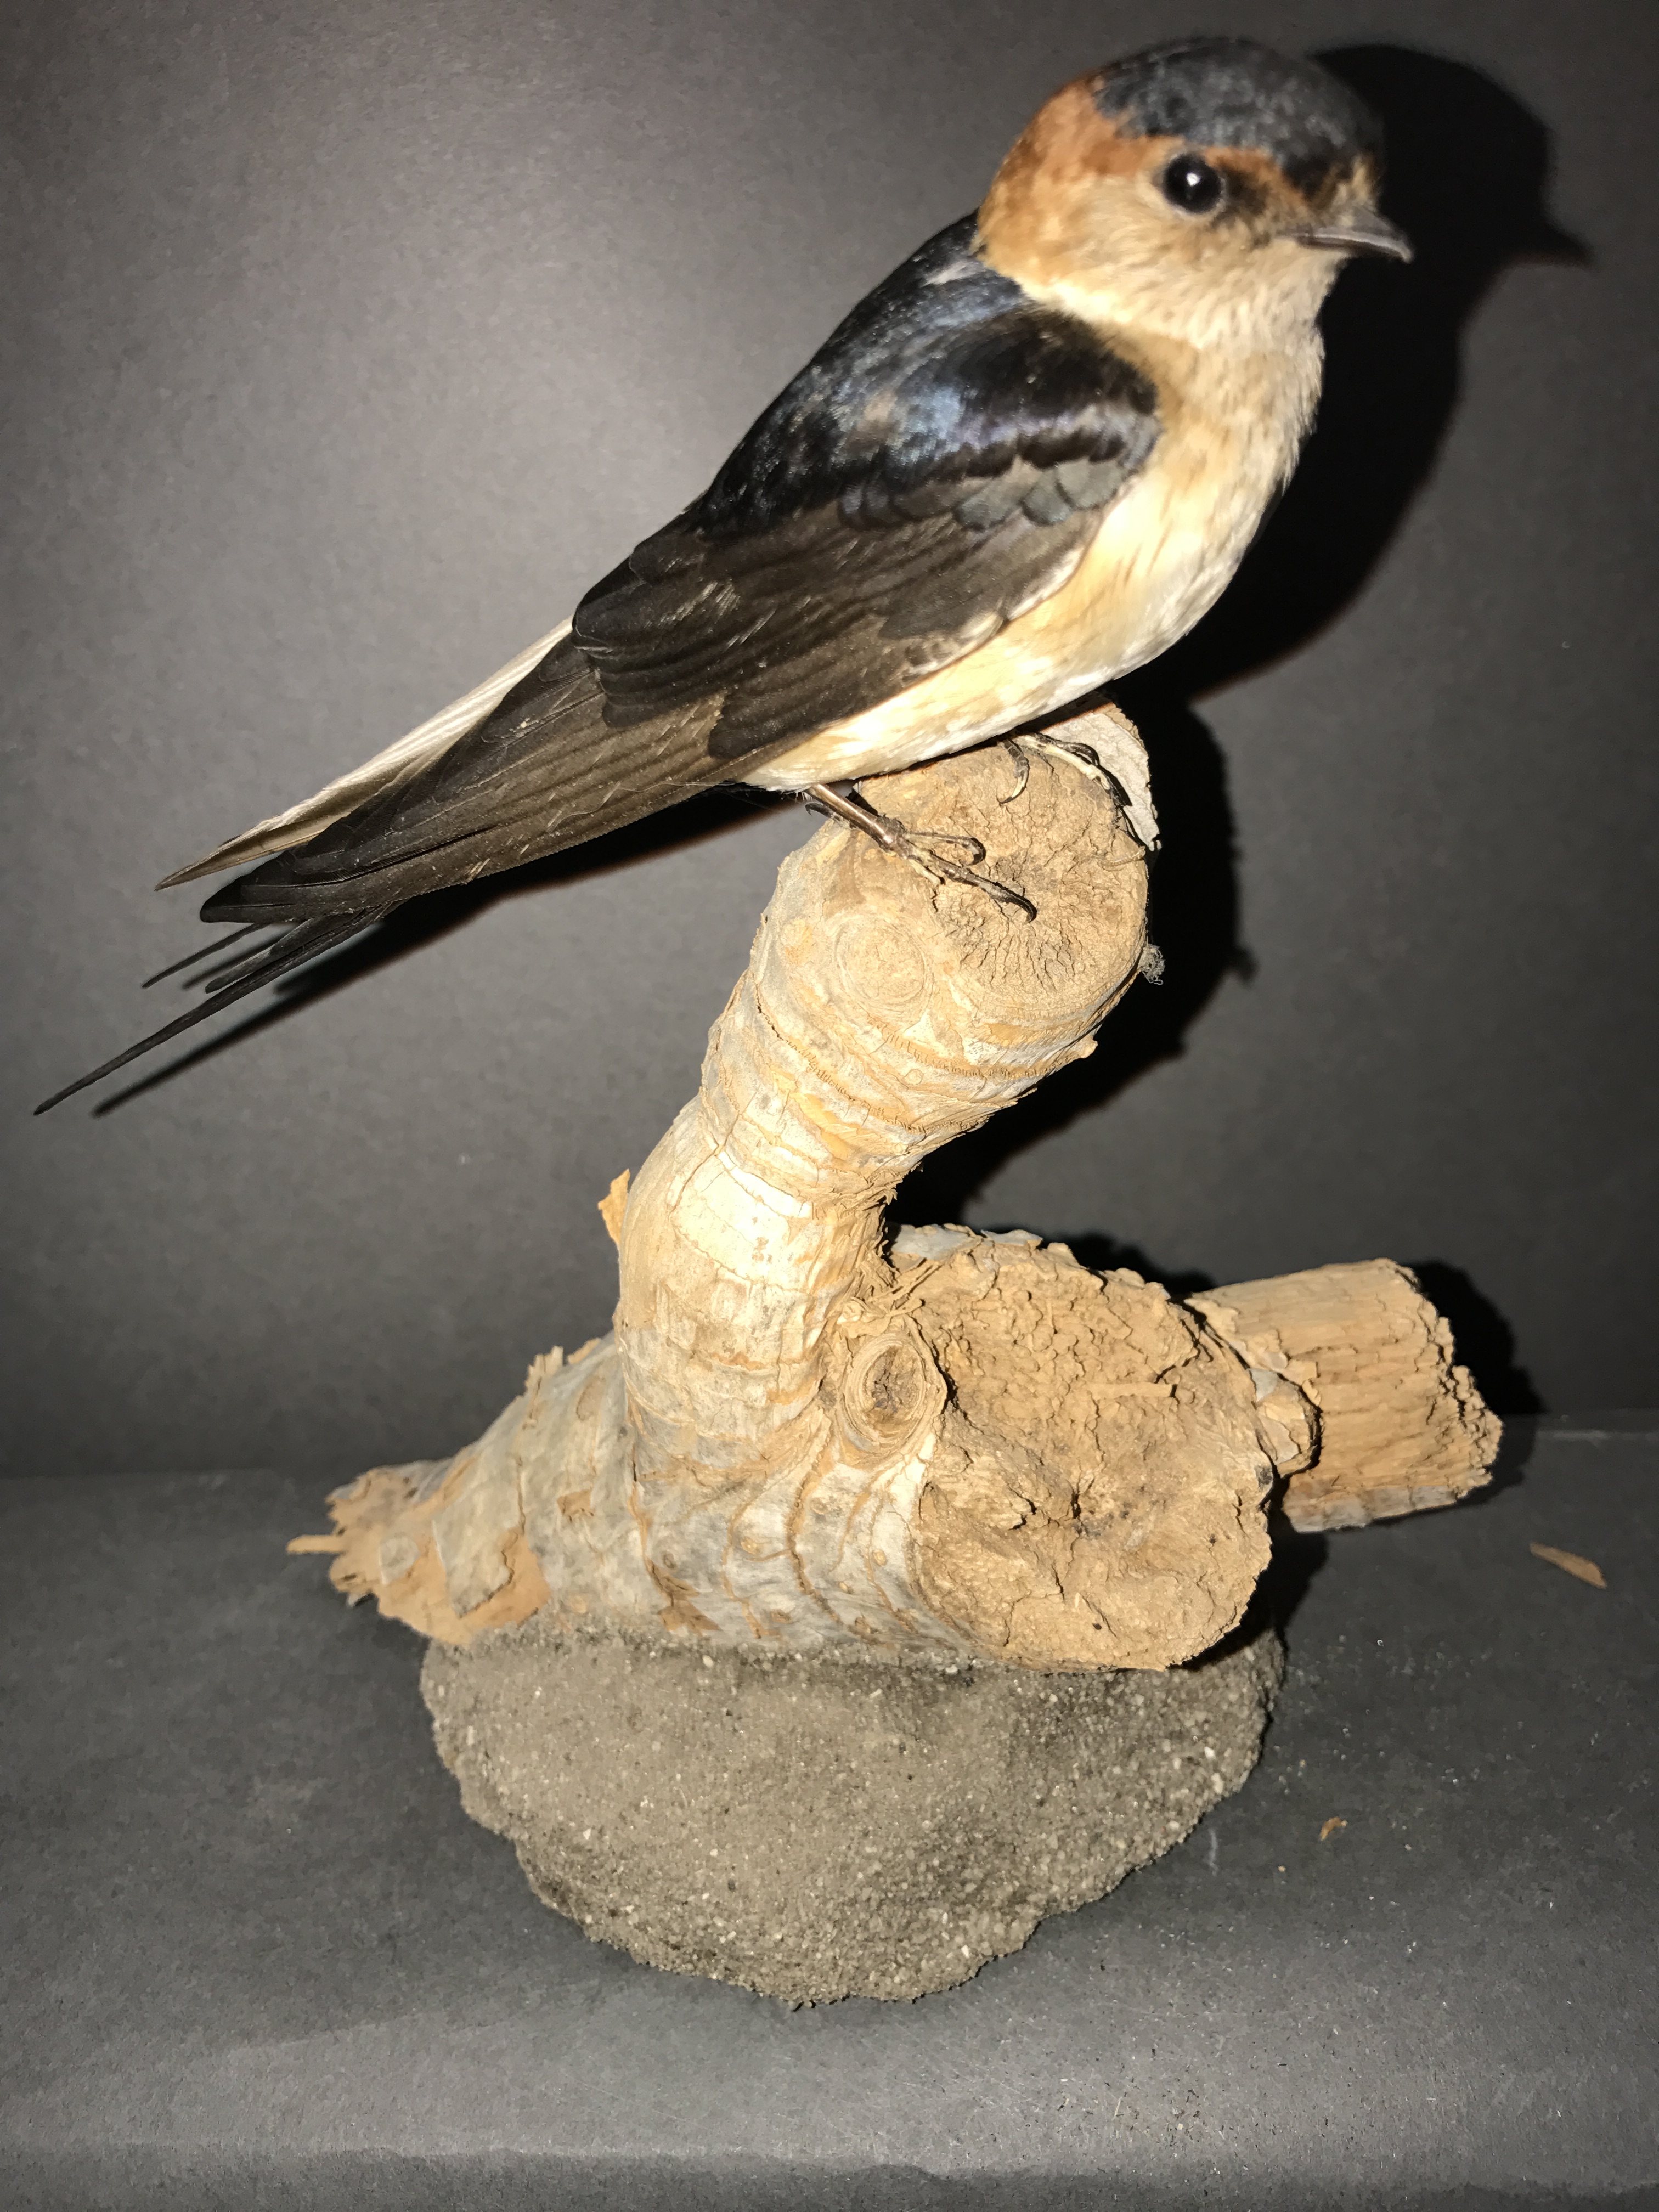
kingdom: Animalia
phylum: Chordata
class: Aves
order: Passeriformes
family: Hirundinidae
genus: Cecropis
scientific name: Cecropis daurica
